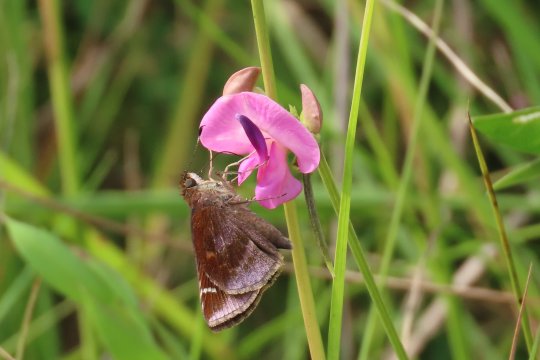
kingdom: Animalia
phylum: Arthropoda
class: Insecta
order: Lepidoptera
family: Hesperiidae
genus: Lerema
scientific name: Lerema accius
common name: Clouded Skipper
